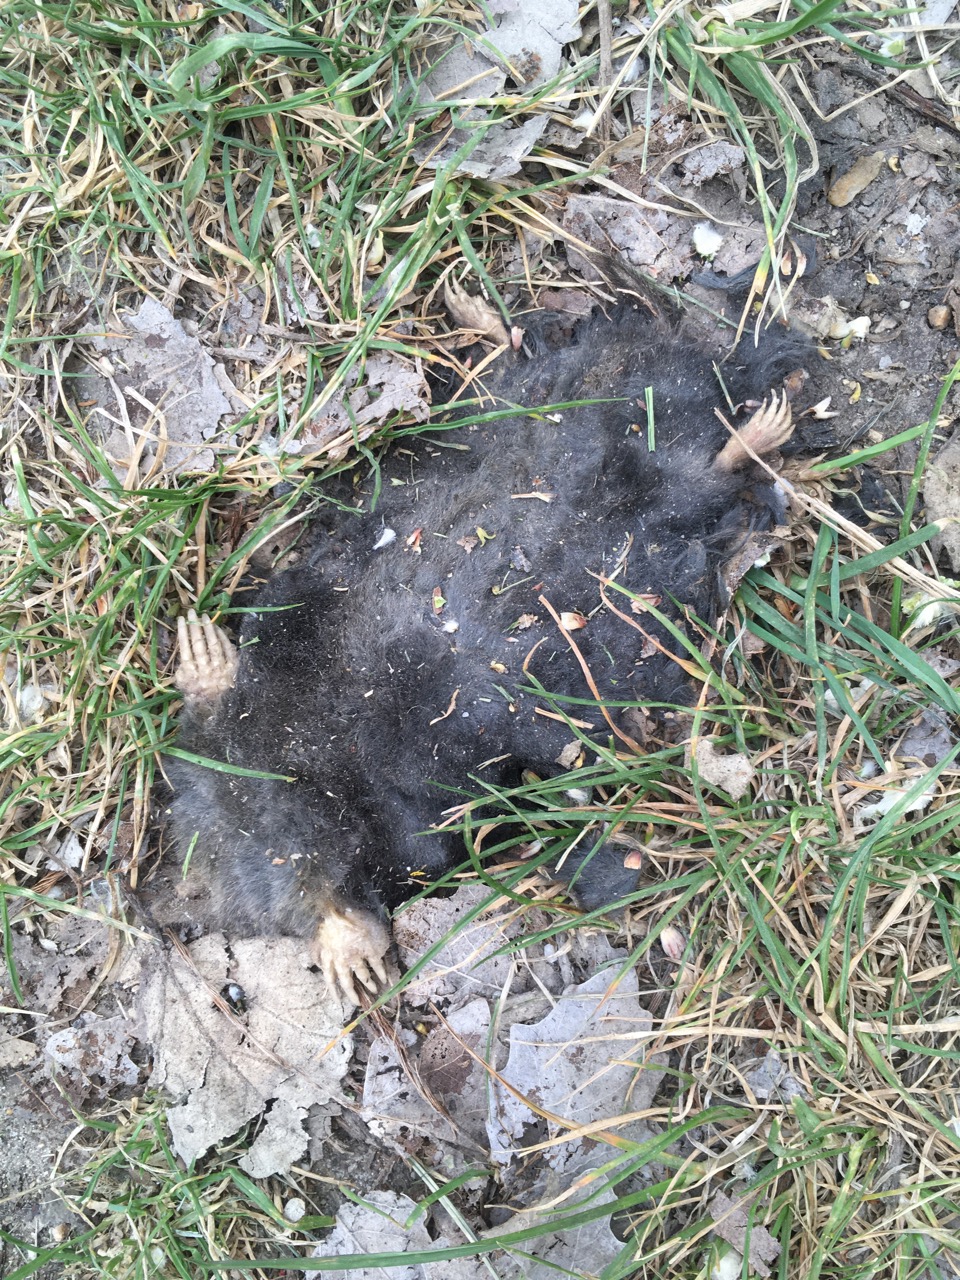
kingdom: Animalia
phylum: Chordata
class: Mammalia
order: Soricomorpha
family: Talpidae
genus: Talpa
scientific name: Talpa europaea
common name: European mole
